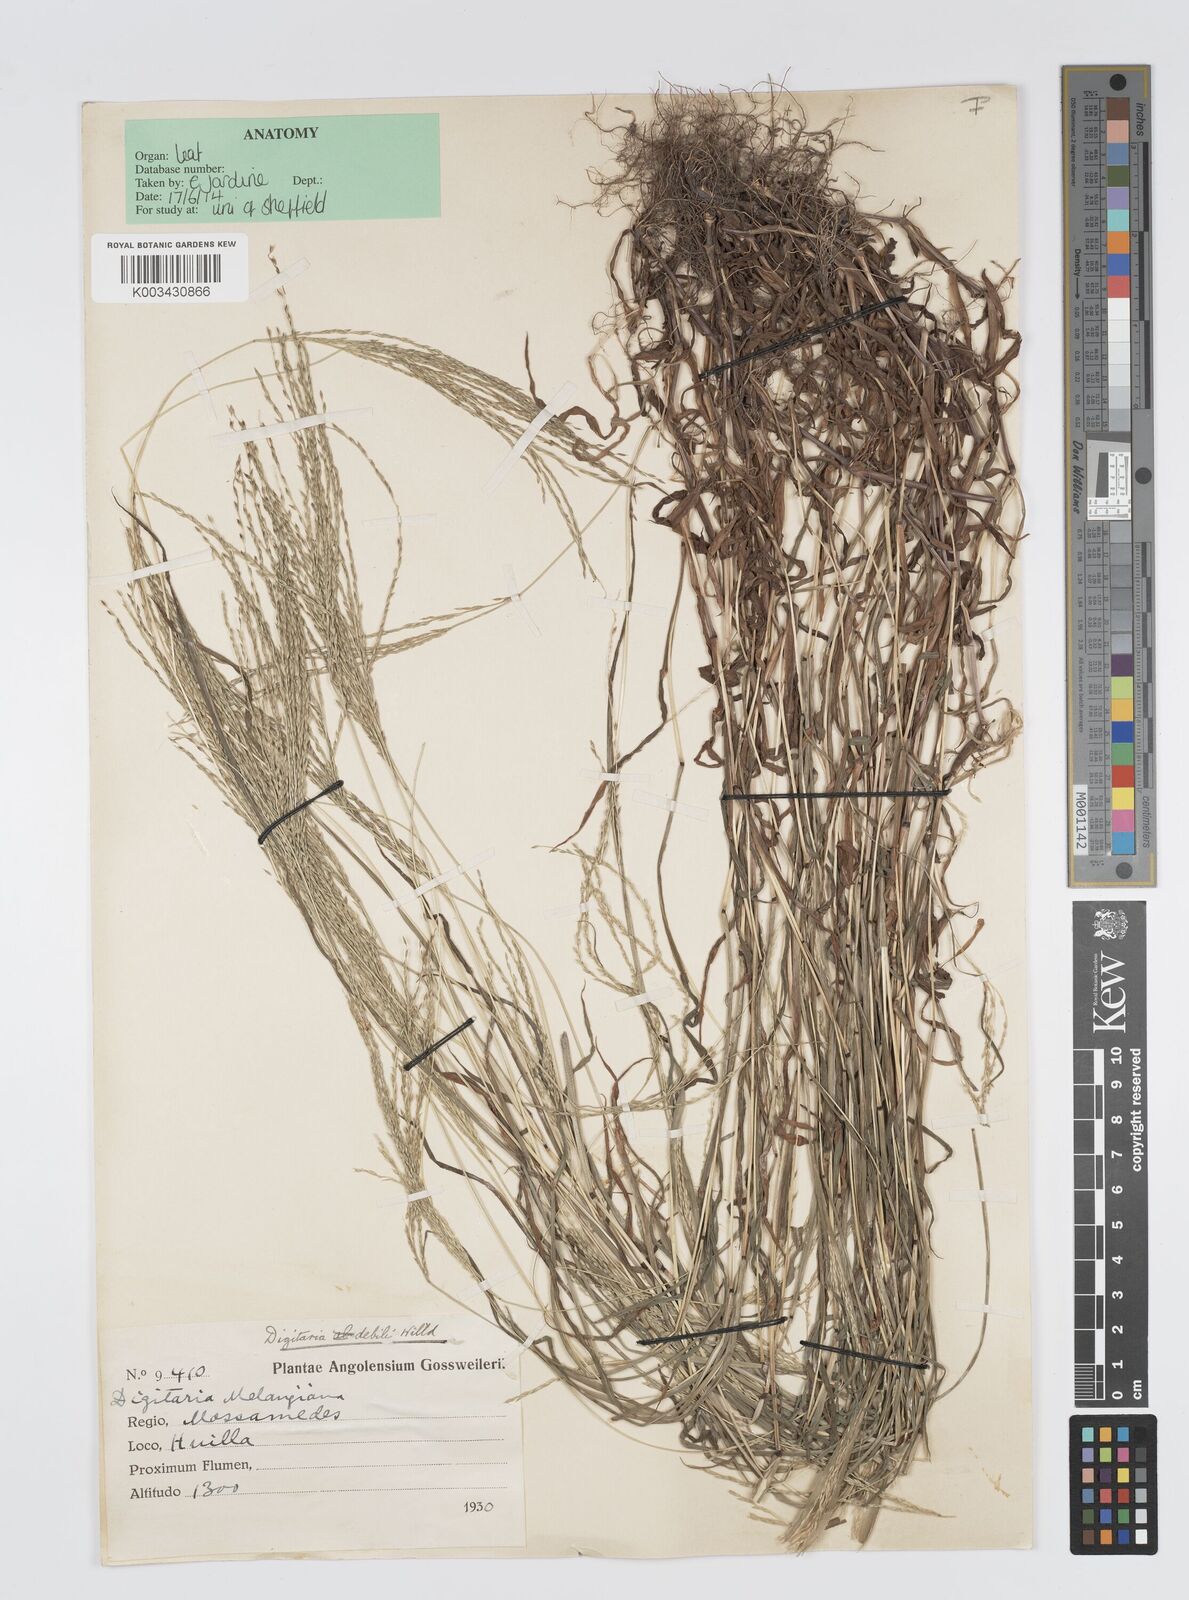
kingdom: Plantae
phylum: Tracheophyta
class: Liliopsida
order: Poales
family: Poaceae
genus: Digitaria
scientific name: Digitaria debilis
